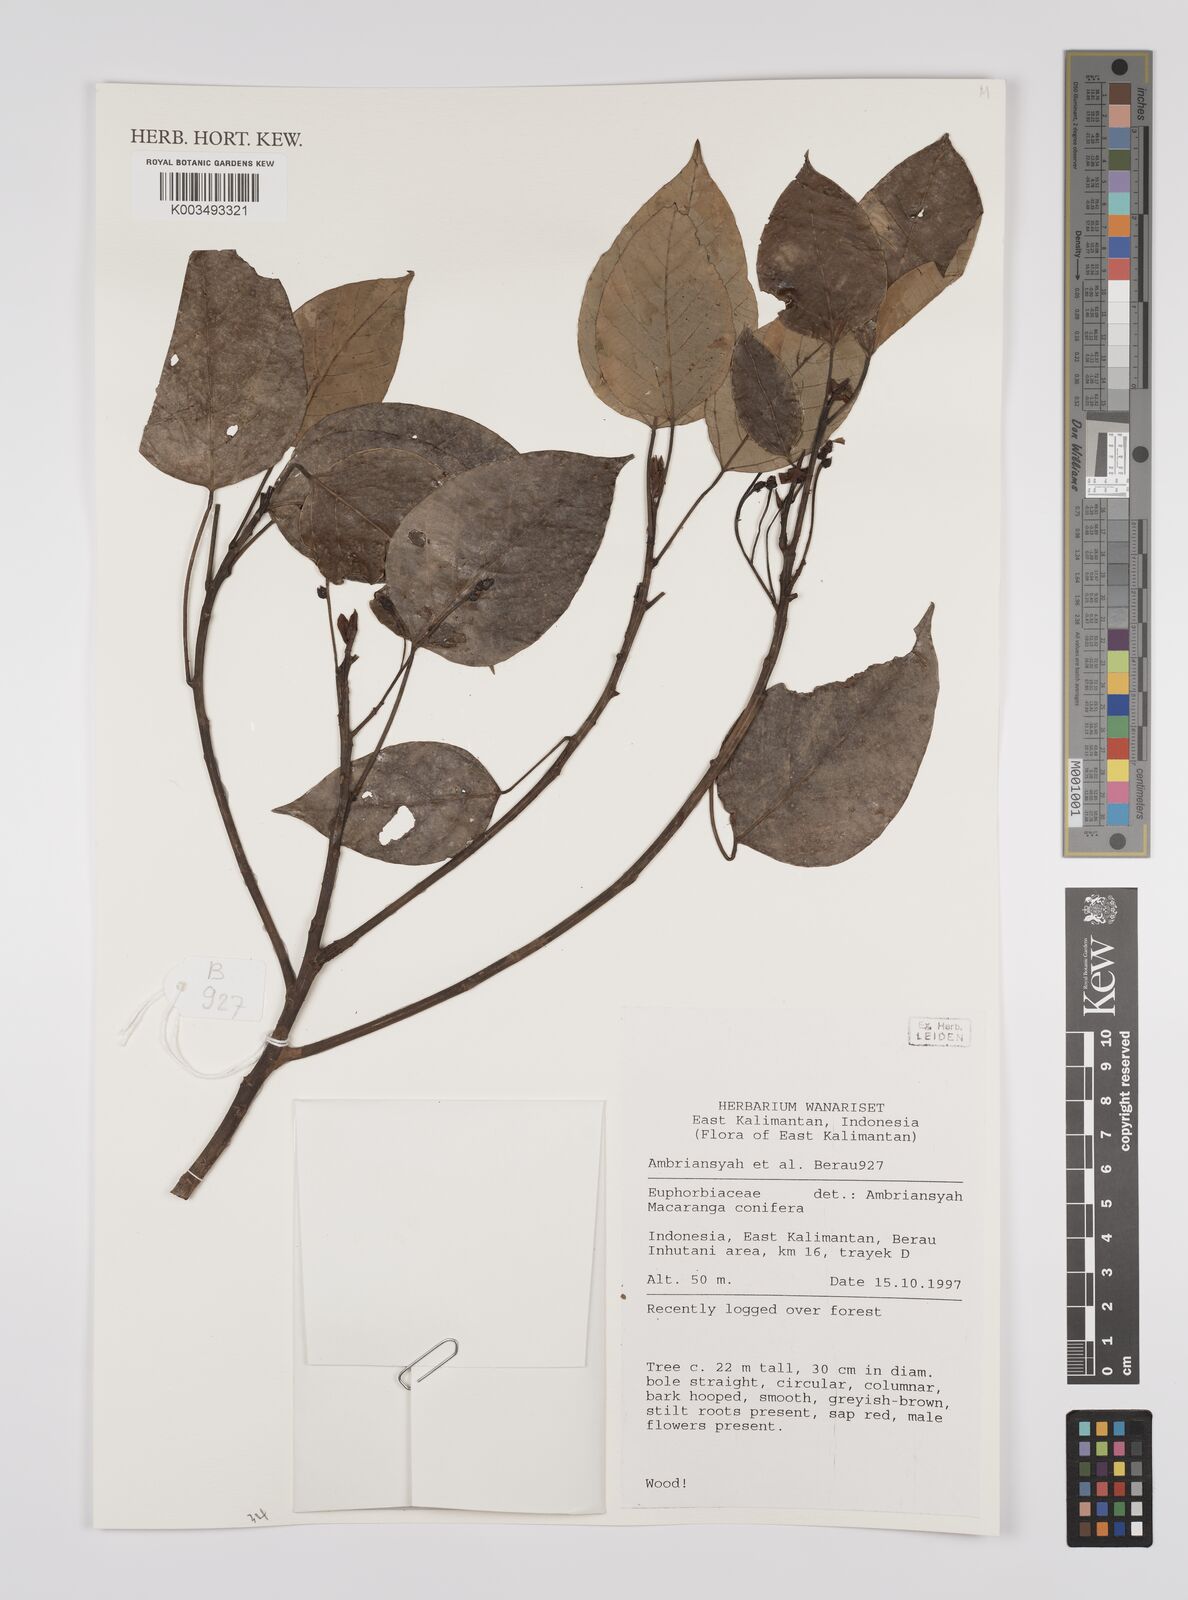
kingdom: Plantae
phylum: Tracheophyta
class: Magnoliopsida
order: Malpighiales
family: Euphorbiaceae
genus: Macaranga
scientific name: Macaranga conifera
